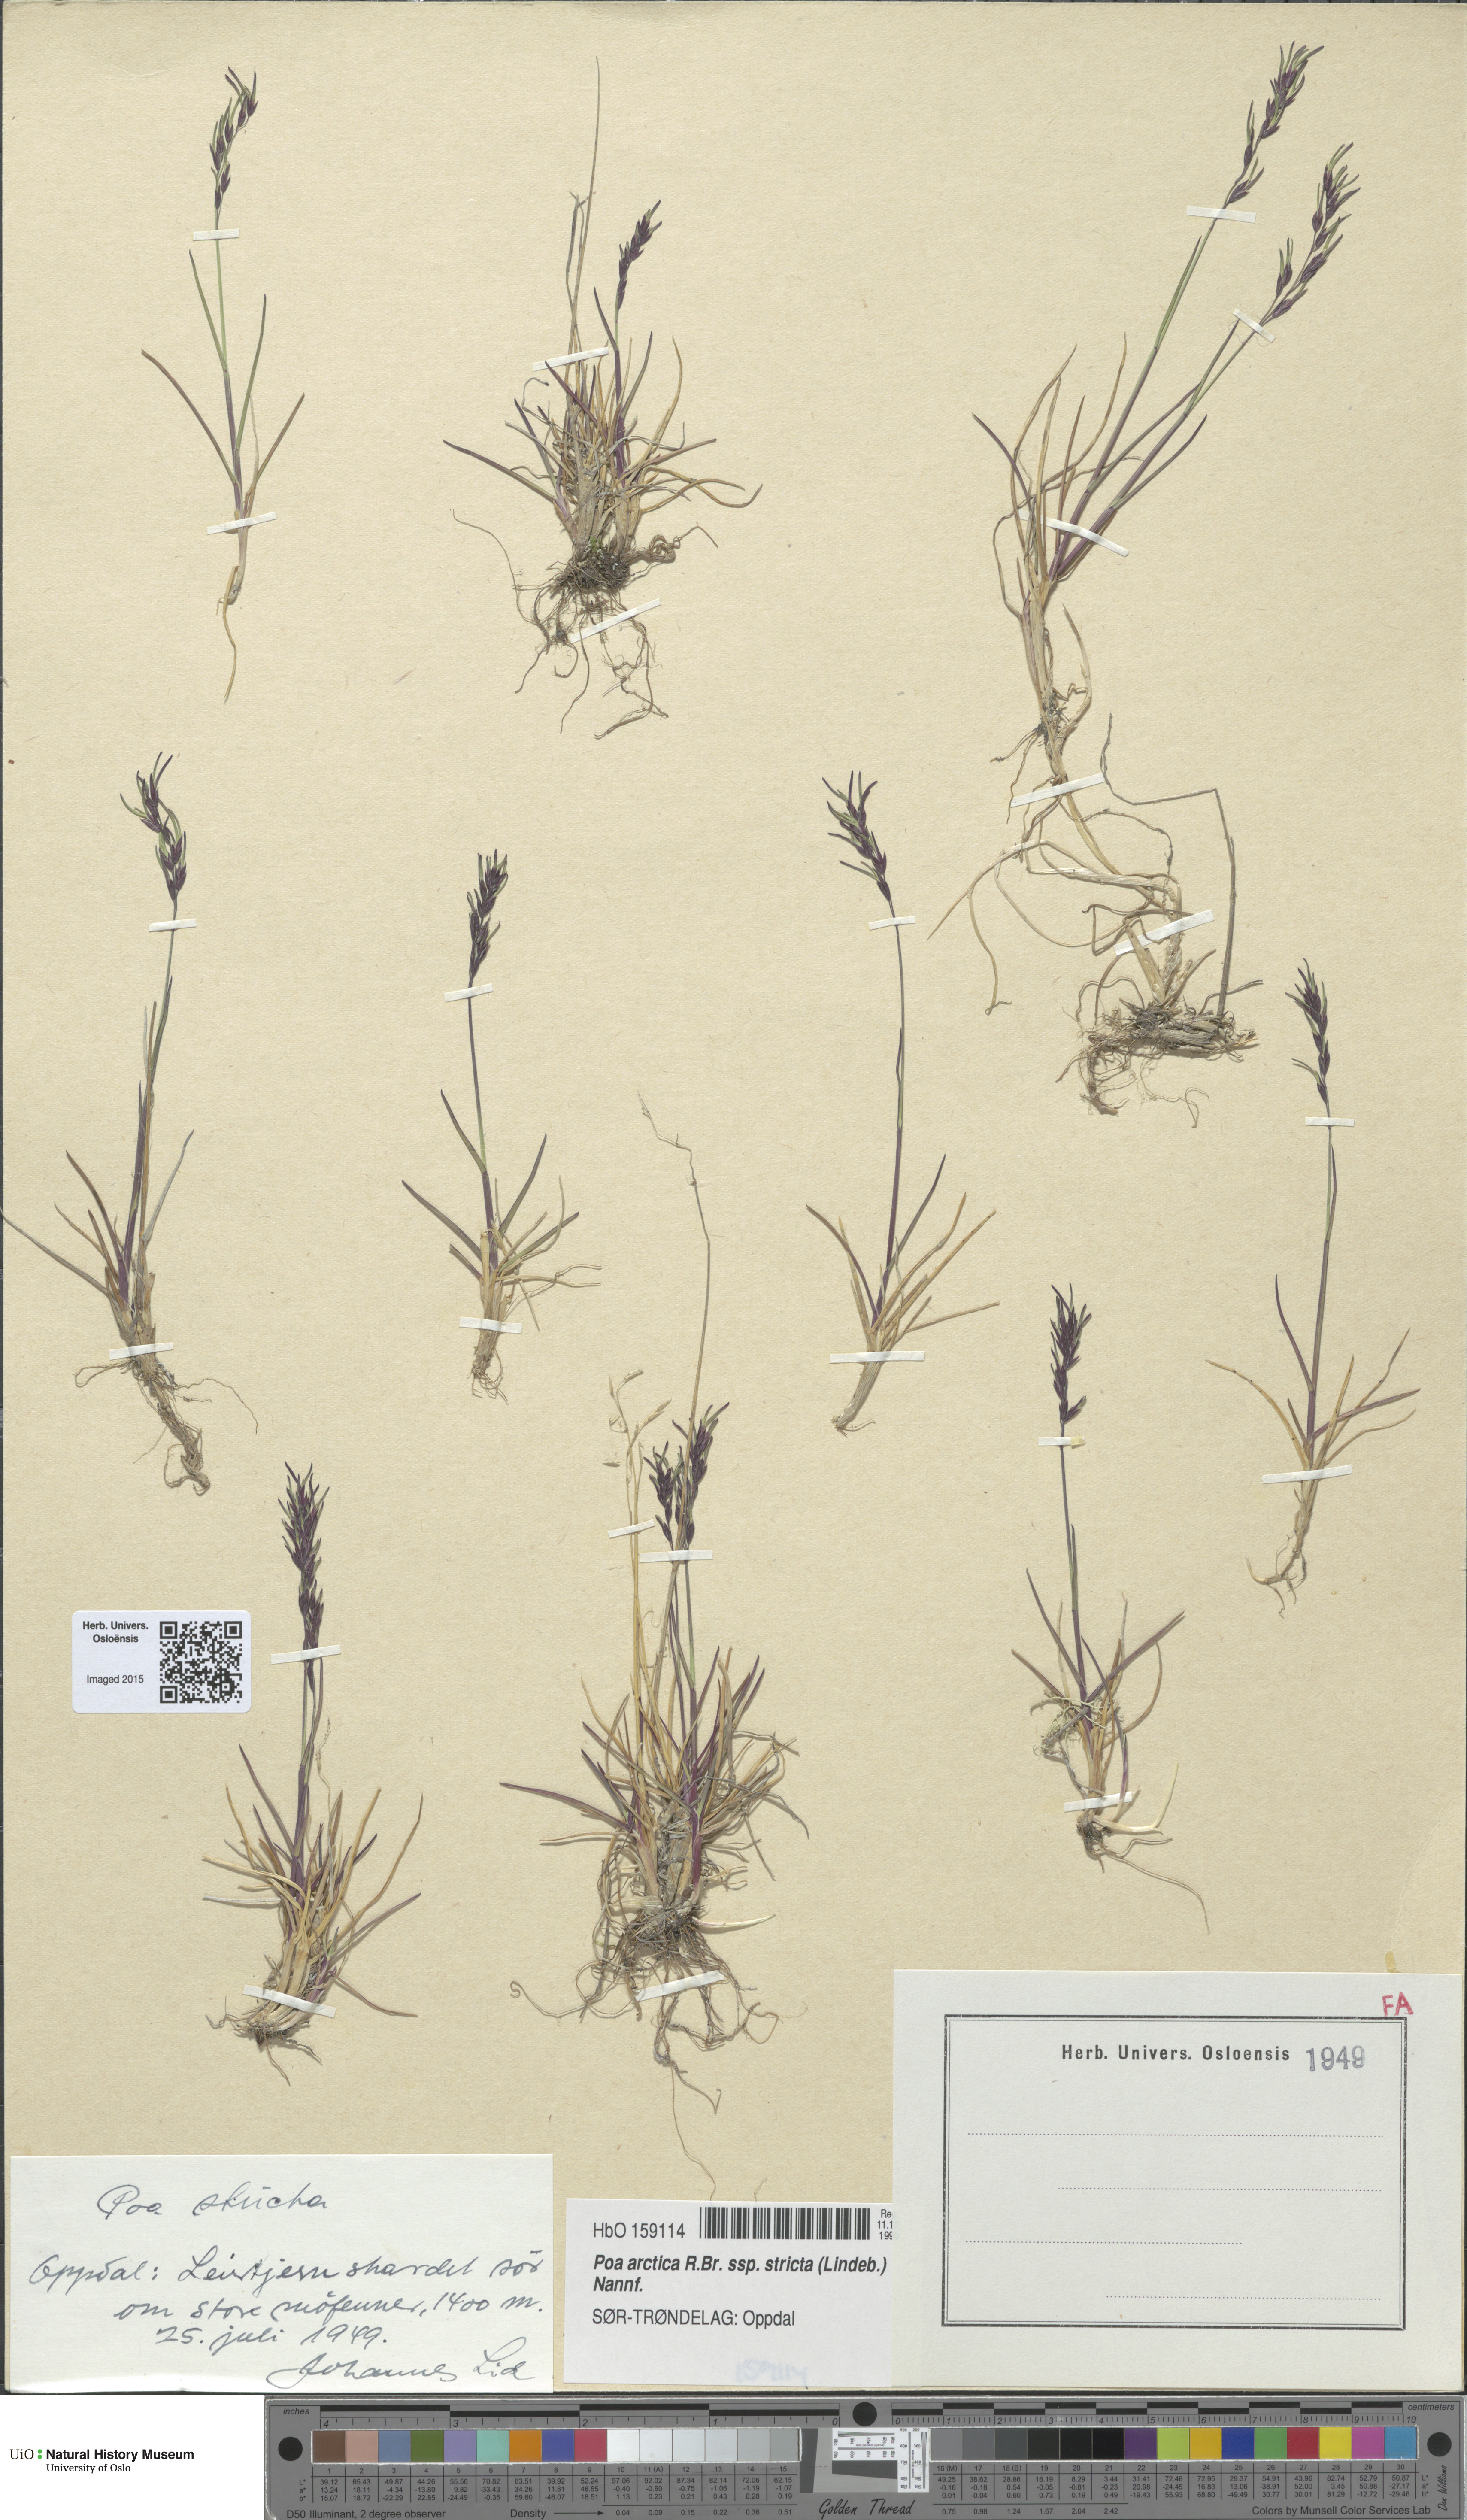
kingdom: Plantae
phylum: Tracheophyta
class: Liliopsida
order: Poales
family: Poaceae
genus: Poa
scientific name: Poa lindebergii
